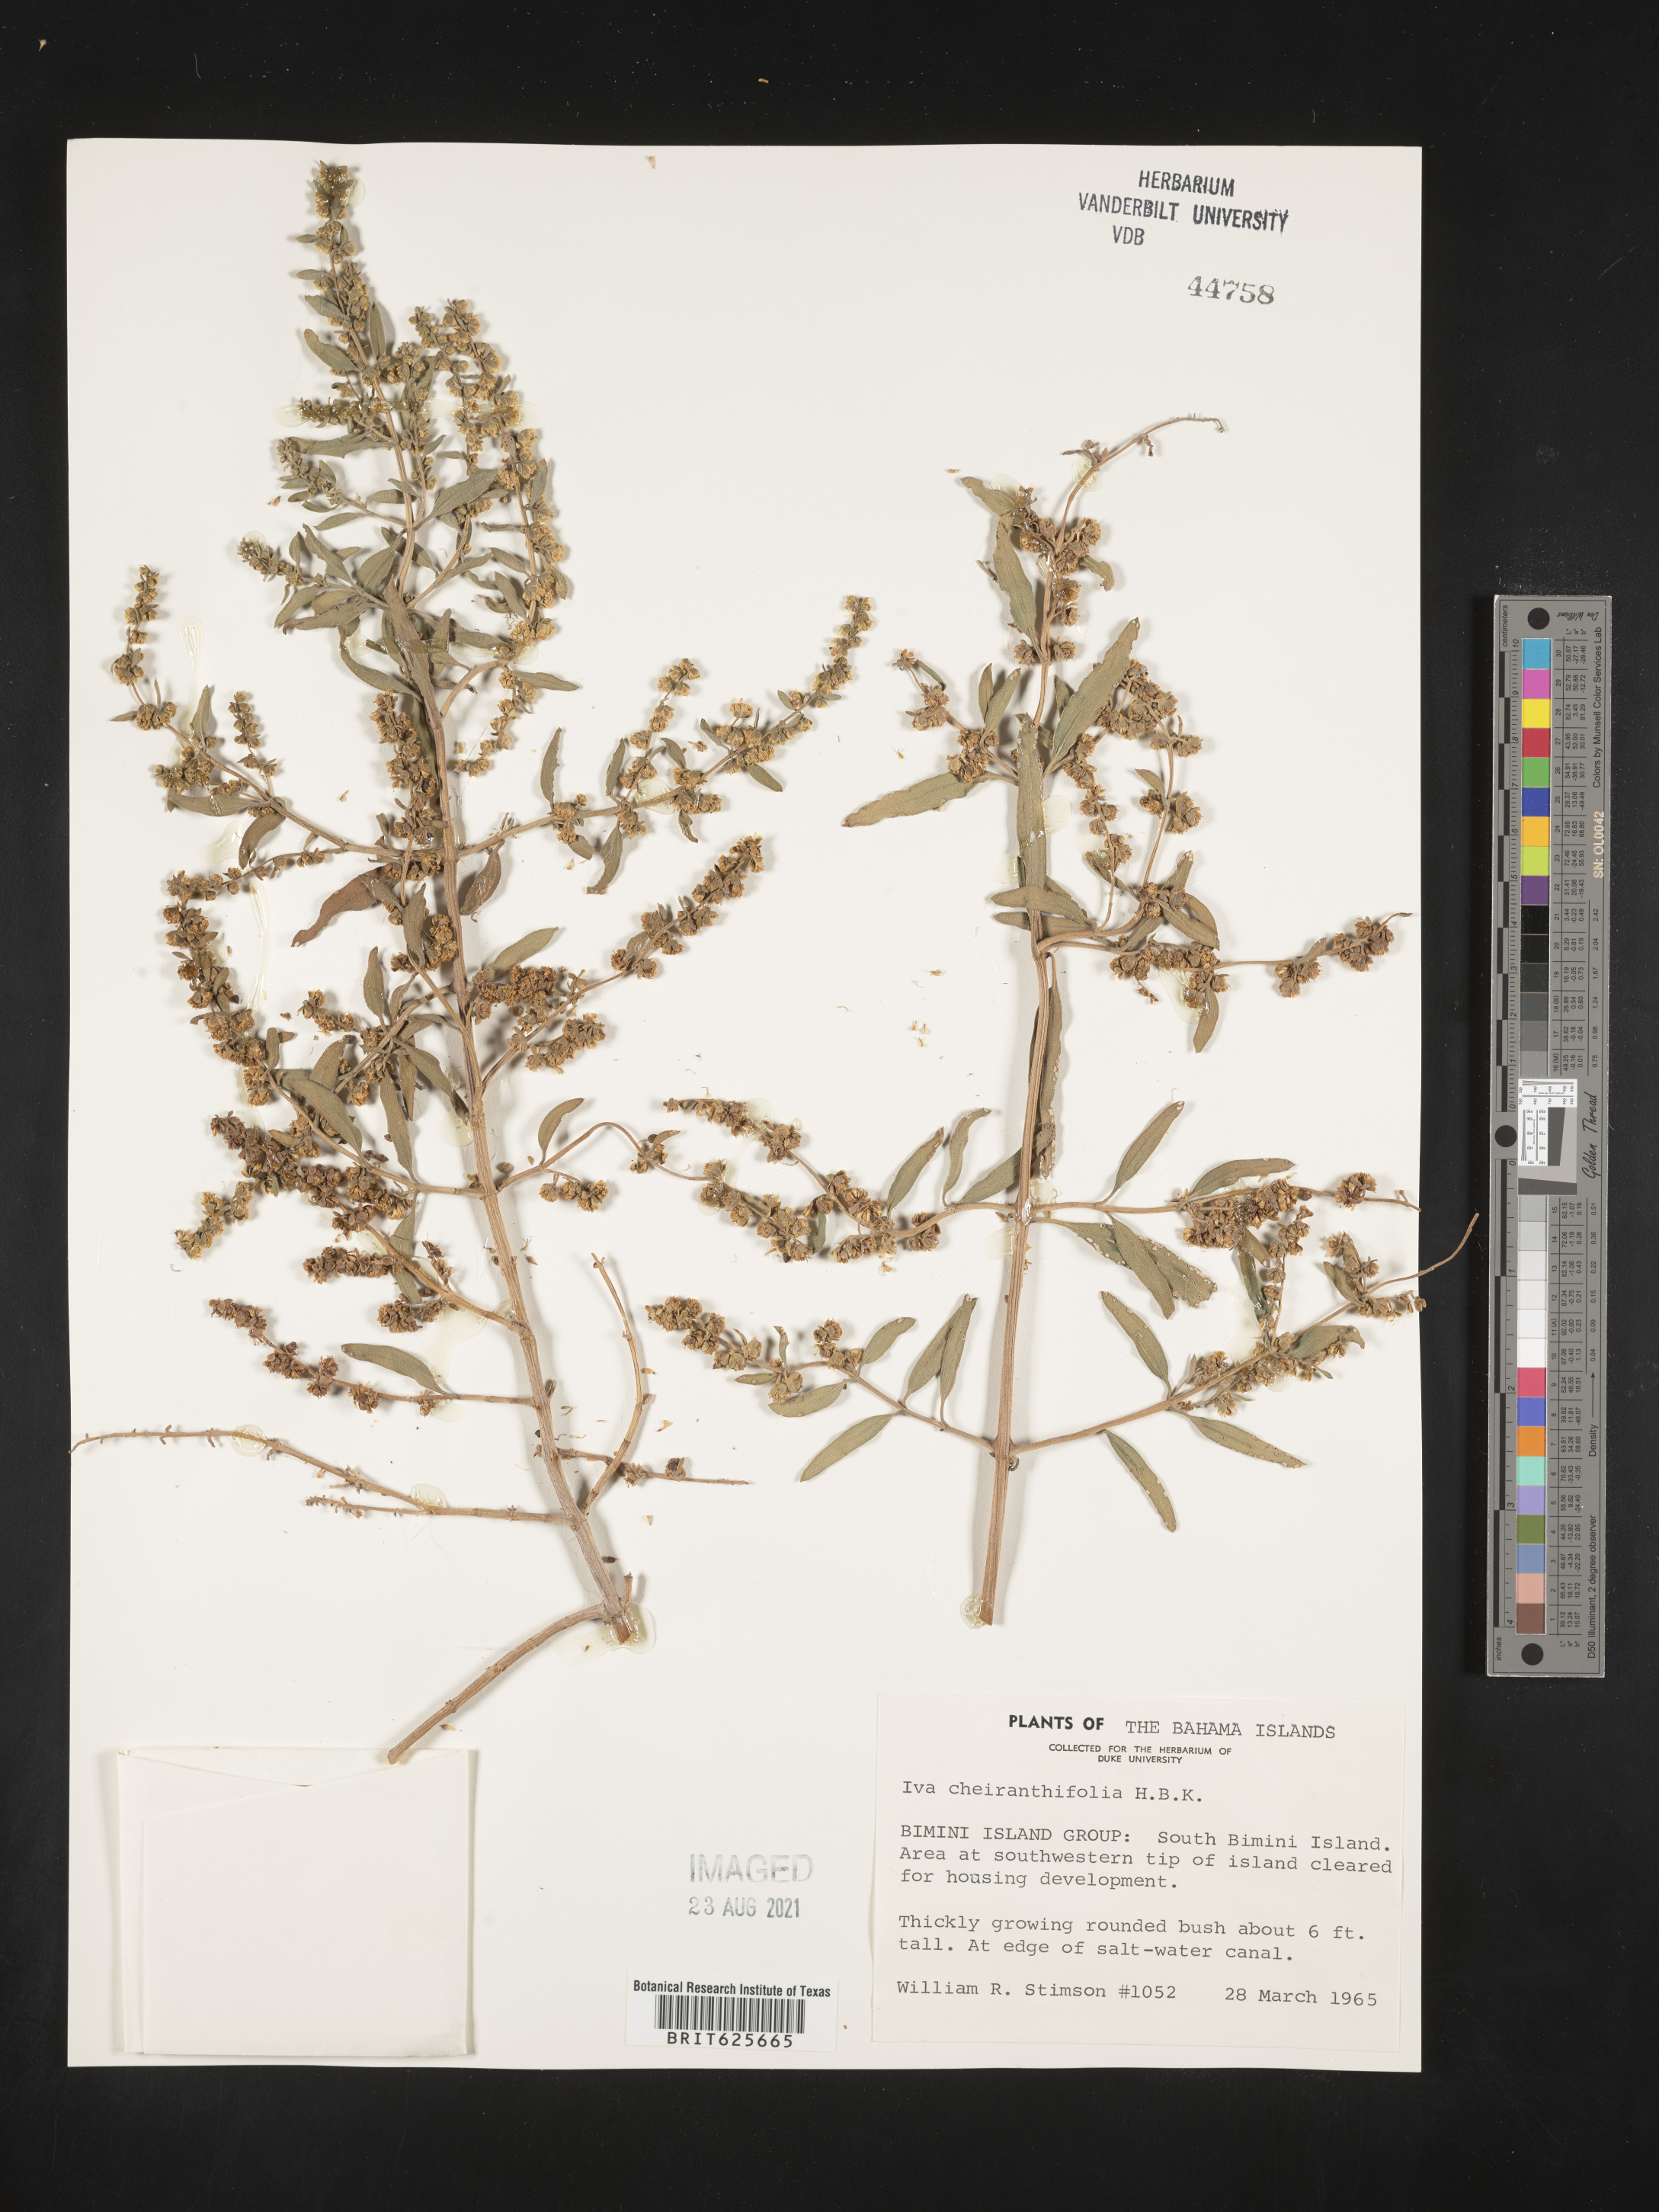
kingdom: Plantae
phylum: Tracheophyta
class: Magnoliopsida
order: Asterales
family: Asteraceae
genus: Iva
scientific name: Iva cheiranthifolia
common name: Fly marsh elder
